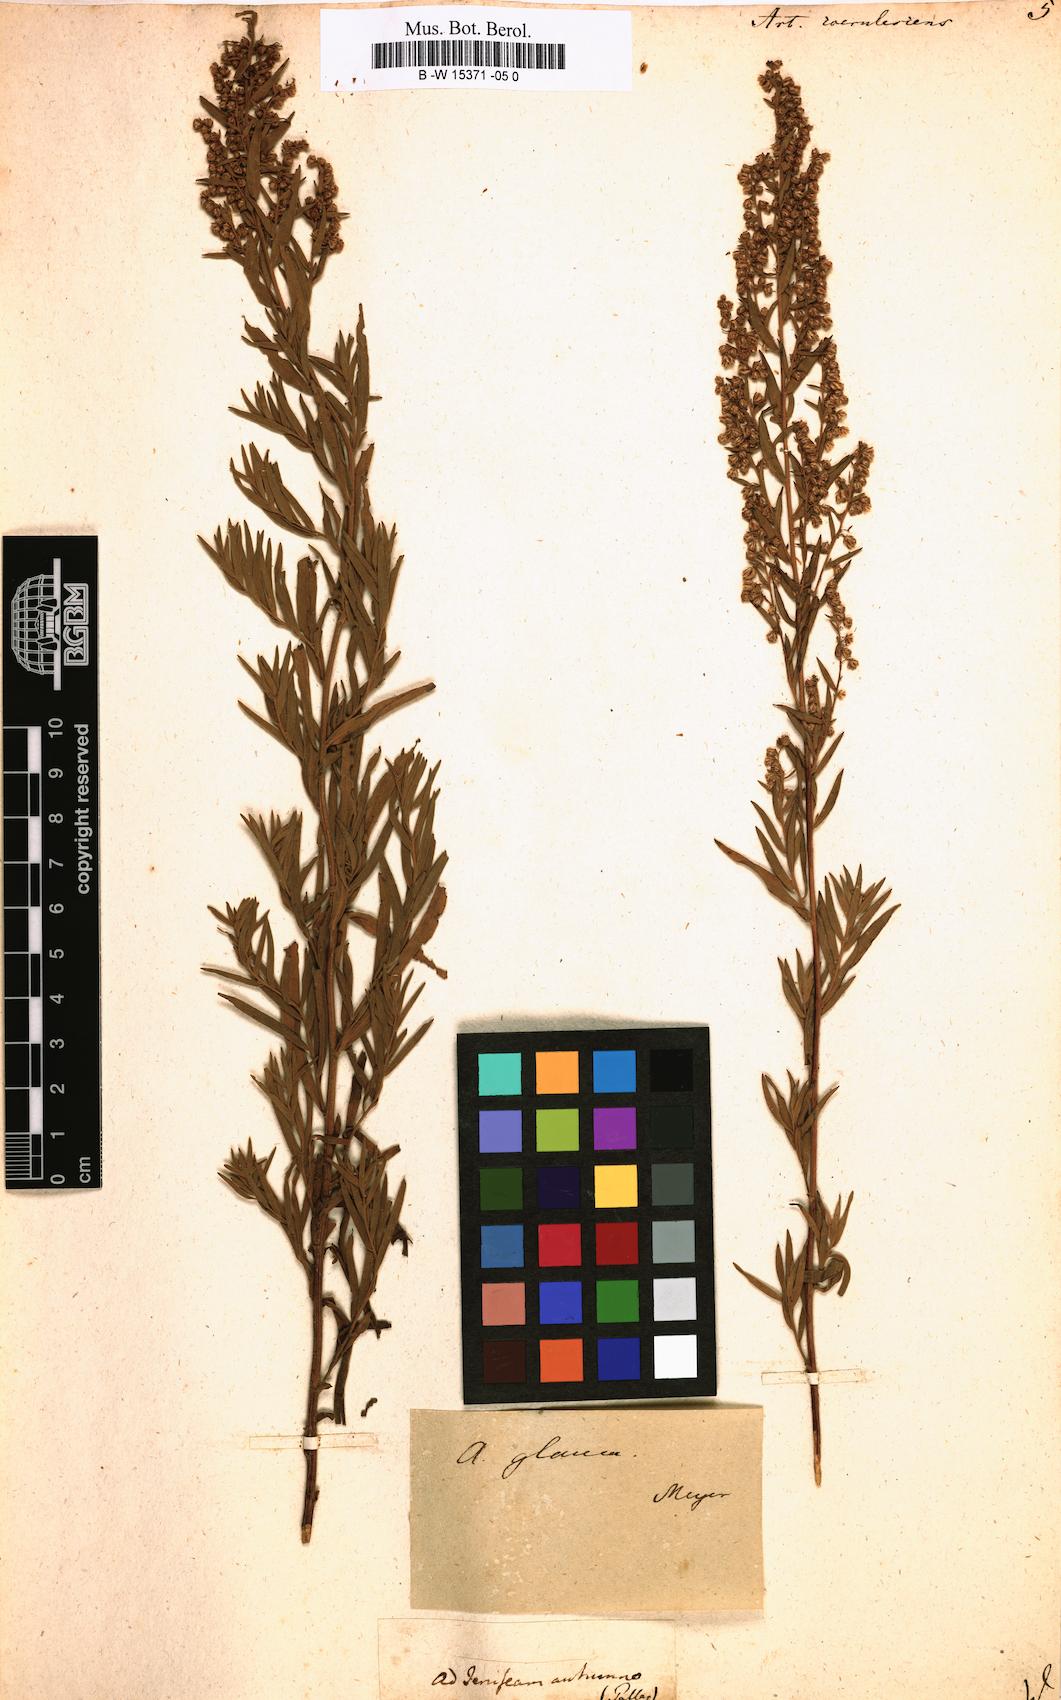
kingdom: Plantae
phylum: Tracheophyta
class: Magnoliopsida
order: Asterales
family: Asteraceae
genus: Artemisia
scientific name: Artemisia caerulescens
